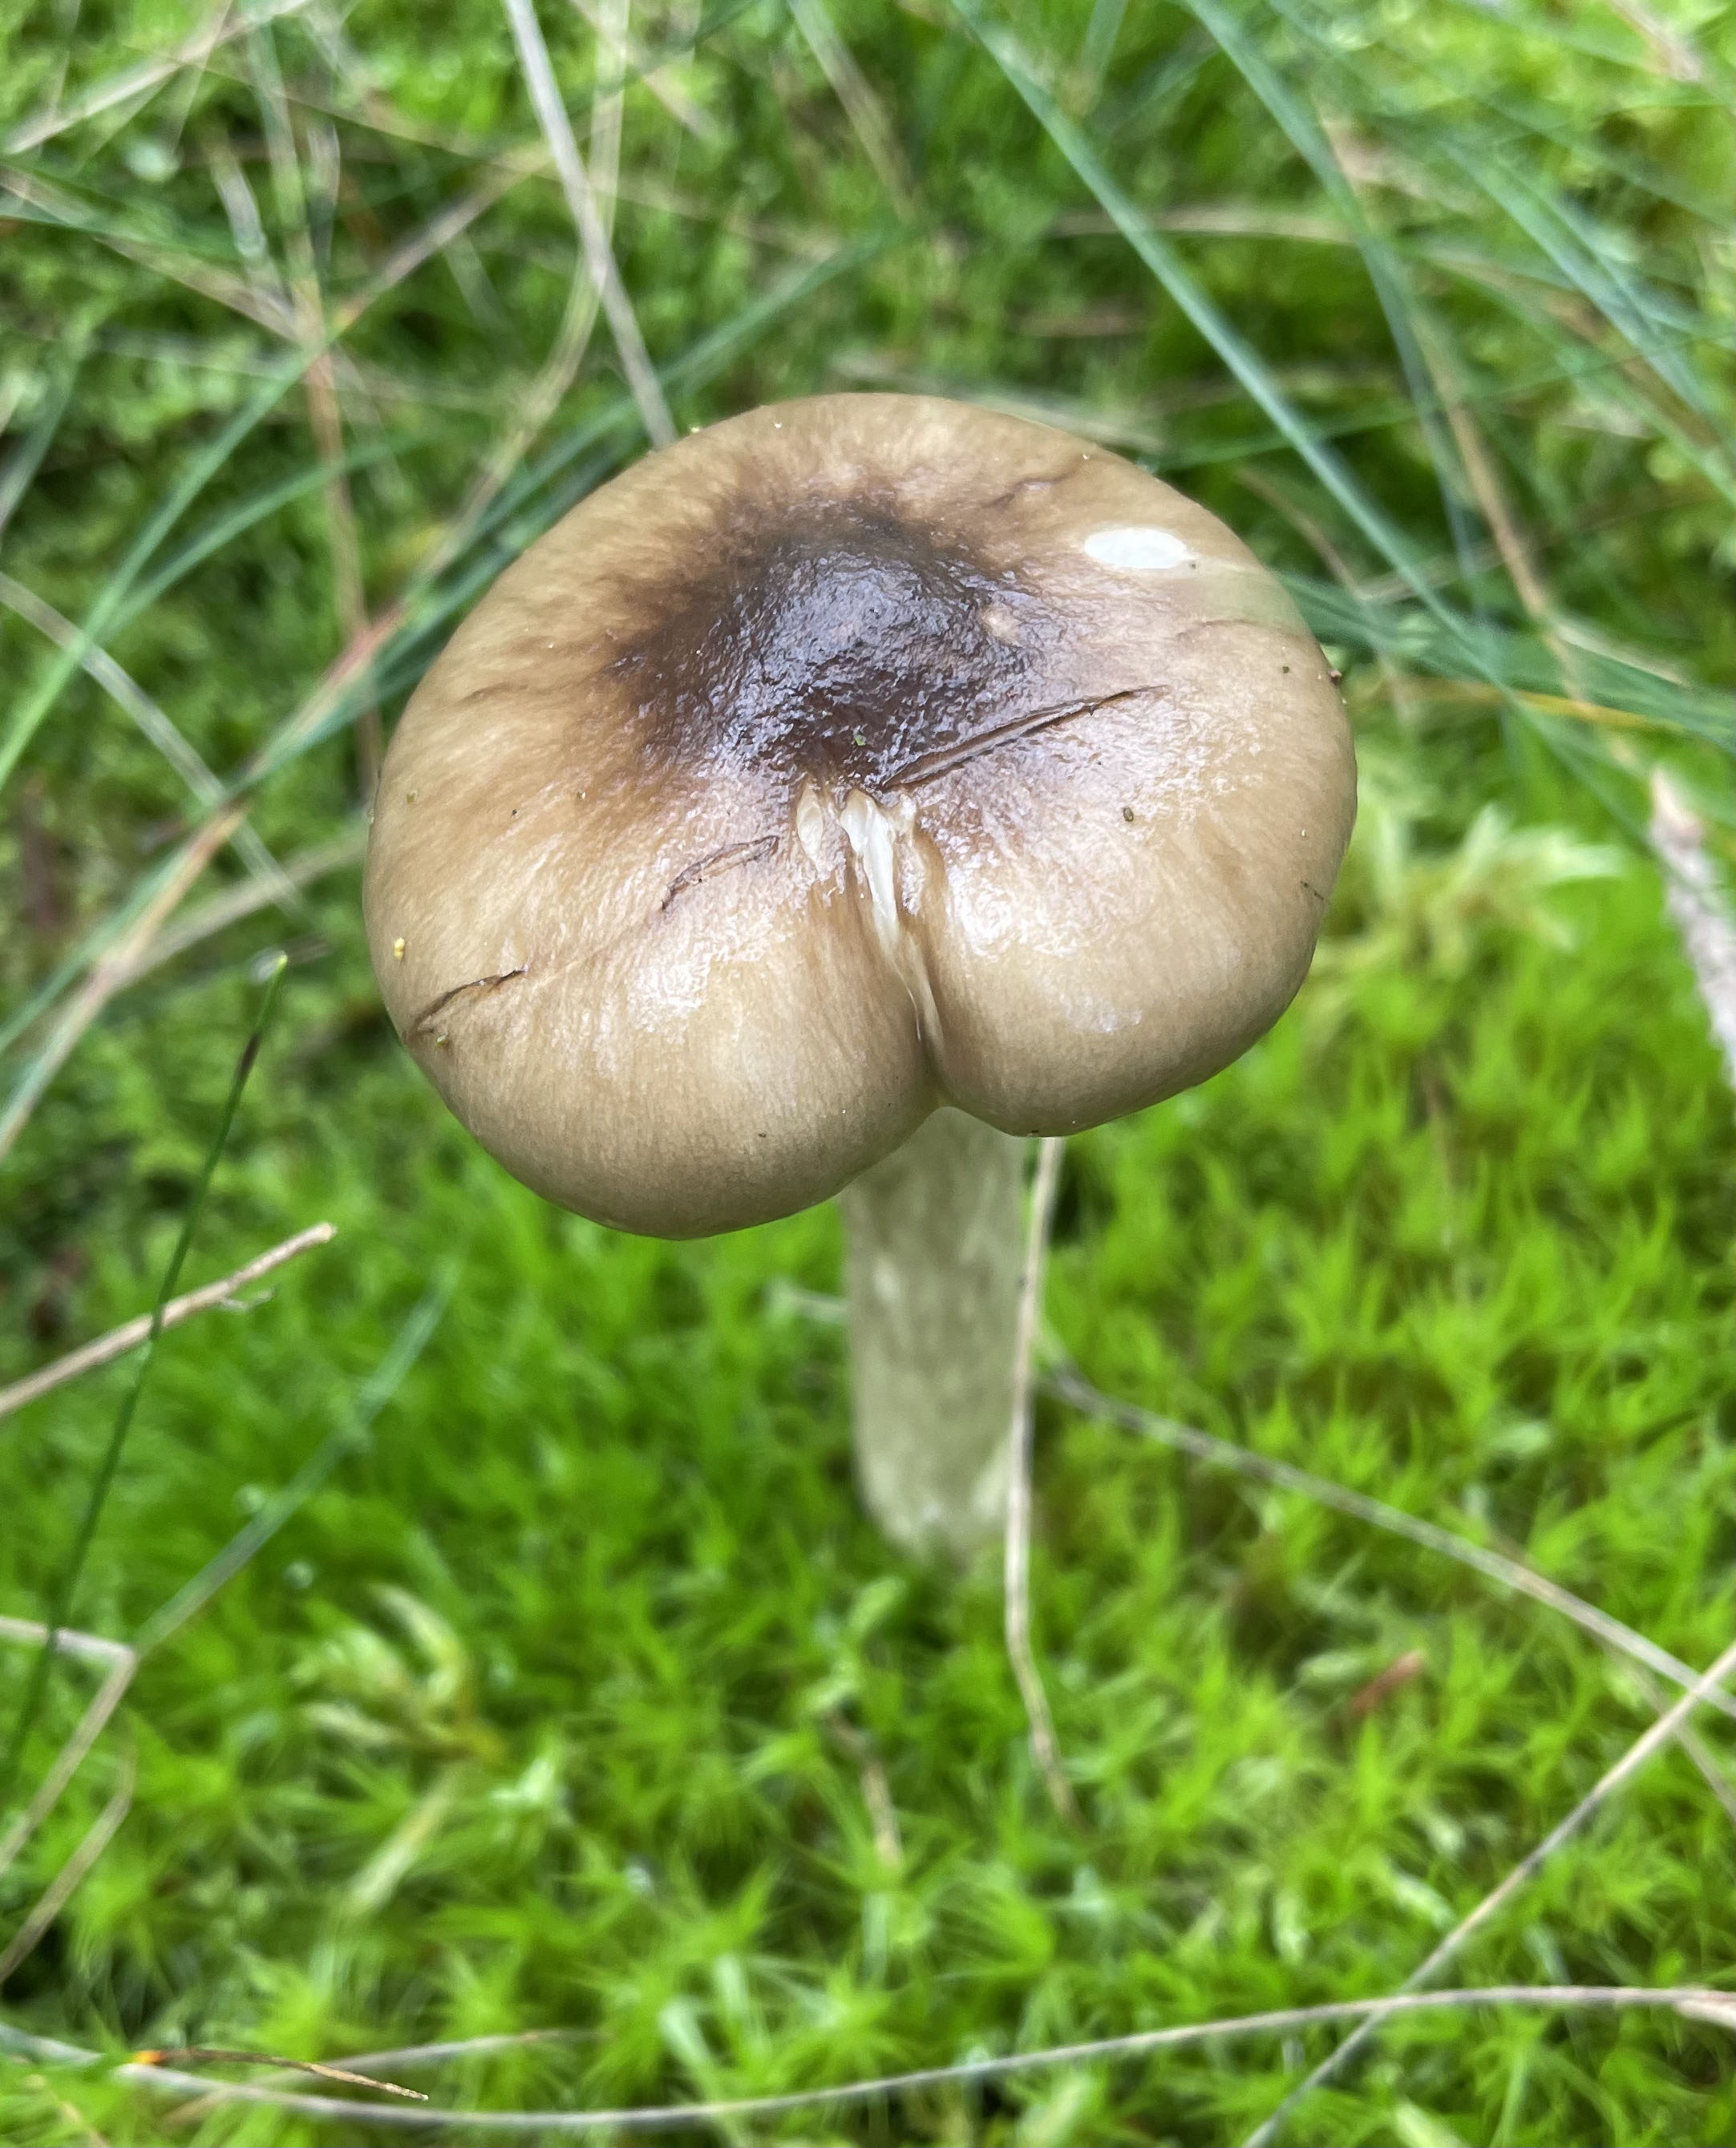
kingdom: Fungi
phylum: Basidiomycota
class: Agaricomycetes
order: Agaricales
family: Hygrophoraceae
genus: Hygrophorus
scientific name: Hygrophorus olivaceoalbus
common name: hvidbrun sneglehat
